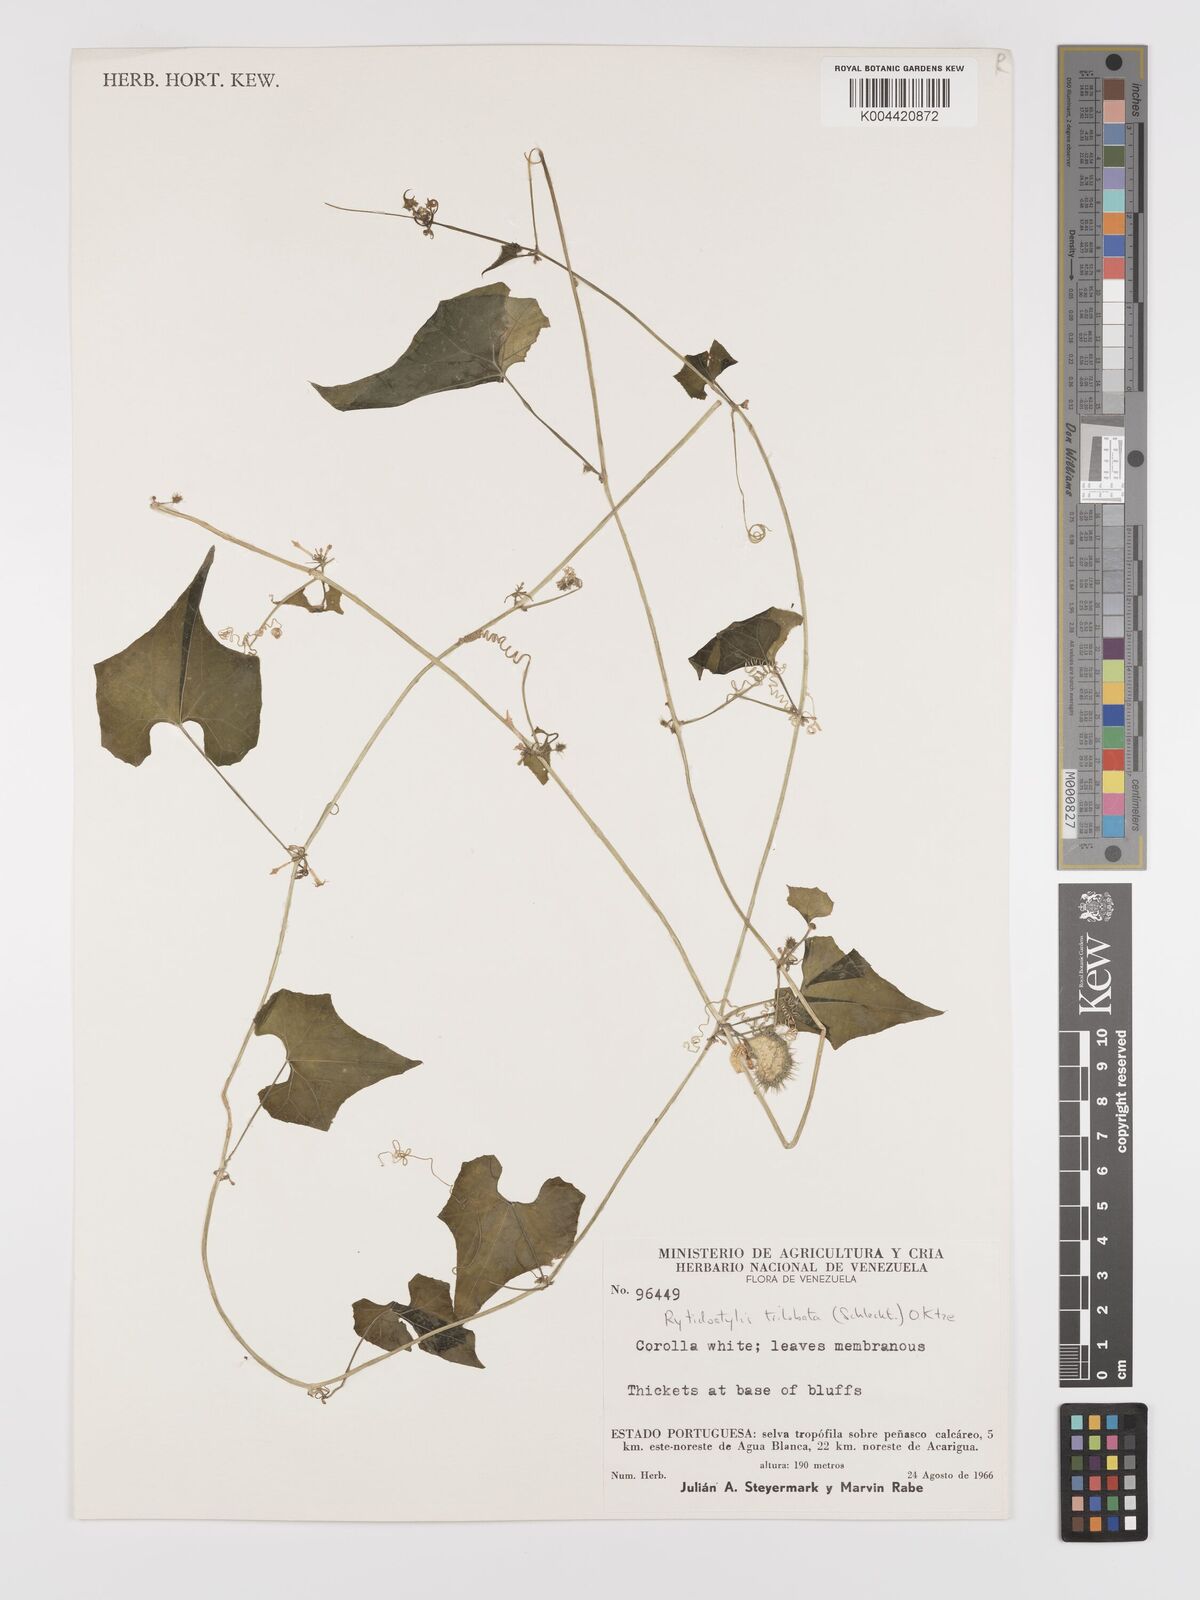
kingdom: Plantae
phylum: Tracheophyta
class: Magnoliopsida
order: Cucurbitales
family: Cucurbitaceae
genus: Cyclanthera
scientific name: Cyclanthera carthagenensis
